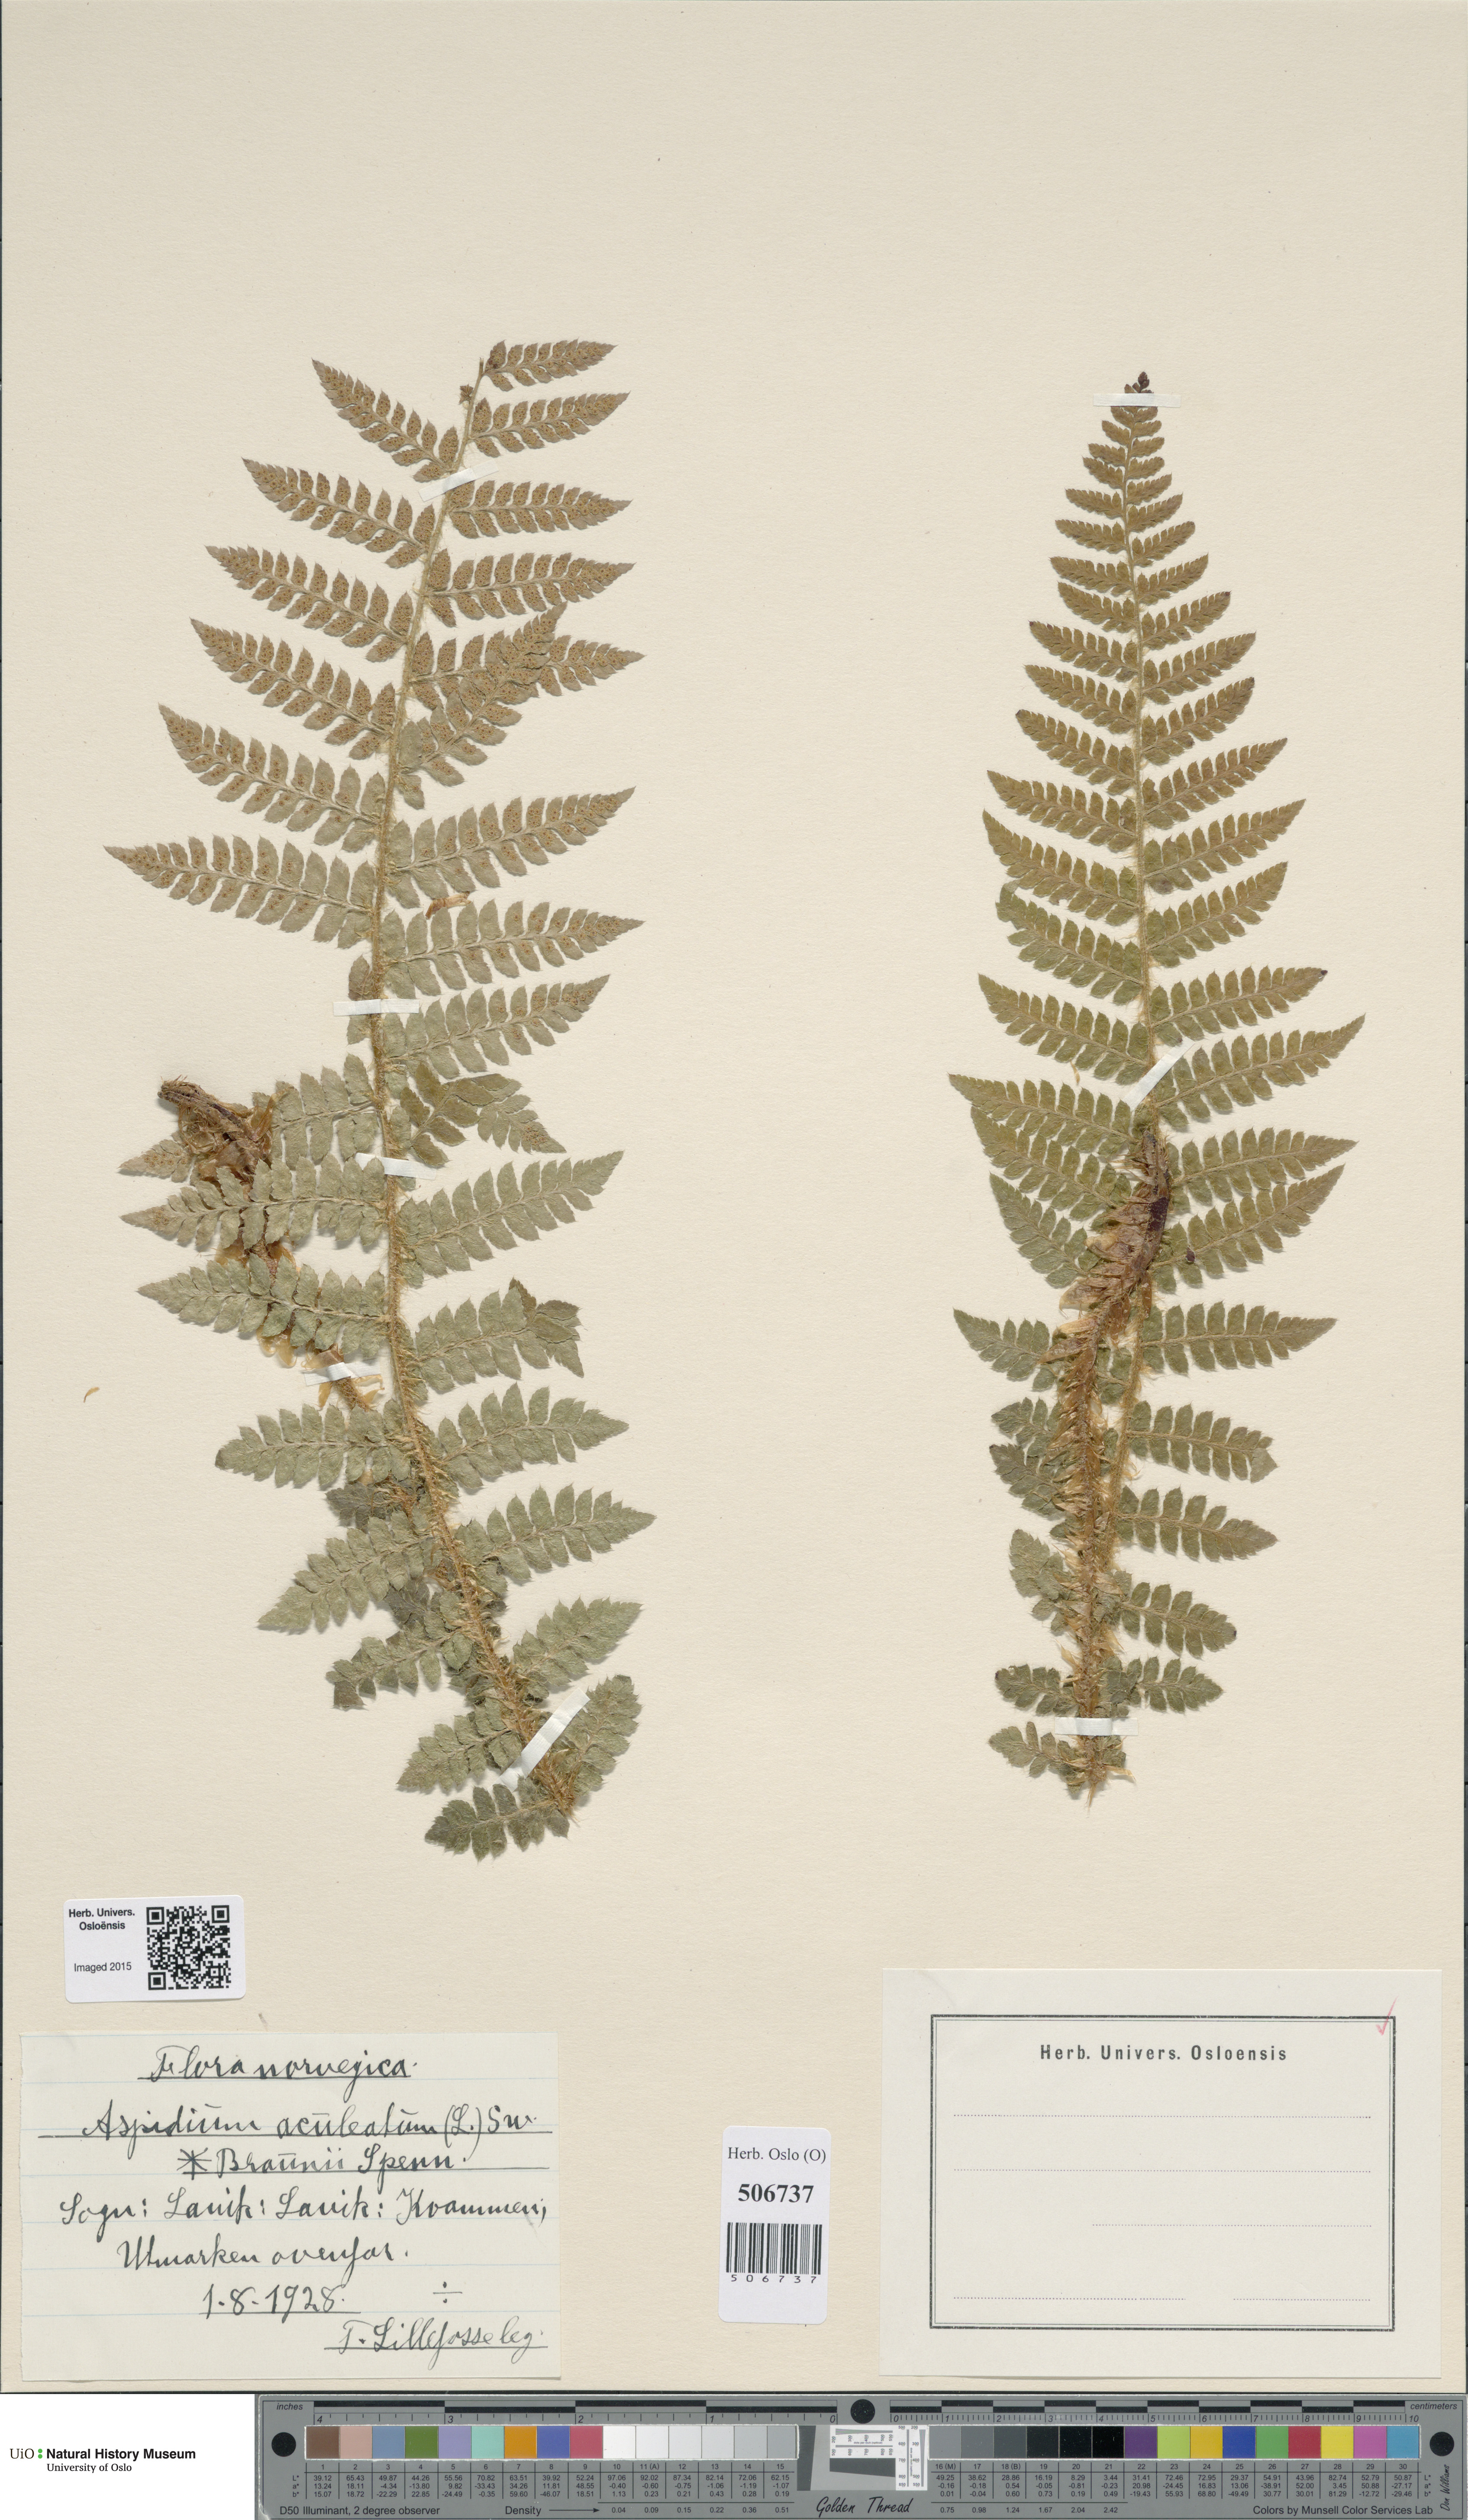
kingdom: Plantae
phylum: Tracheophyta
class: Polypodiopsida
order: Polypodiales
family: Dryopteridaceae
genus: Polystichum
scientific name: Polystichum braunii
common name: Braun's holly fern
